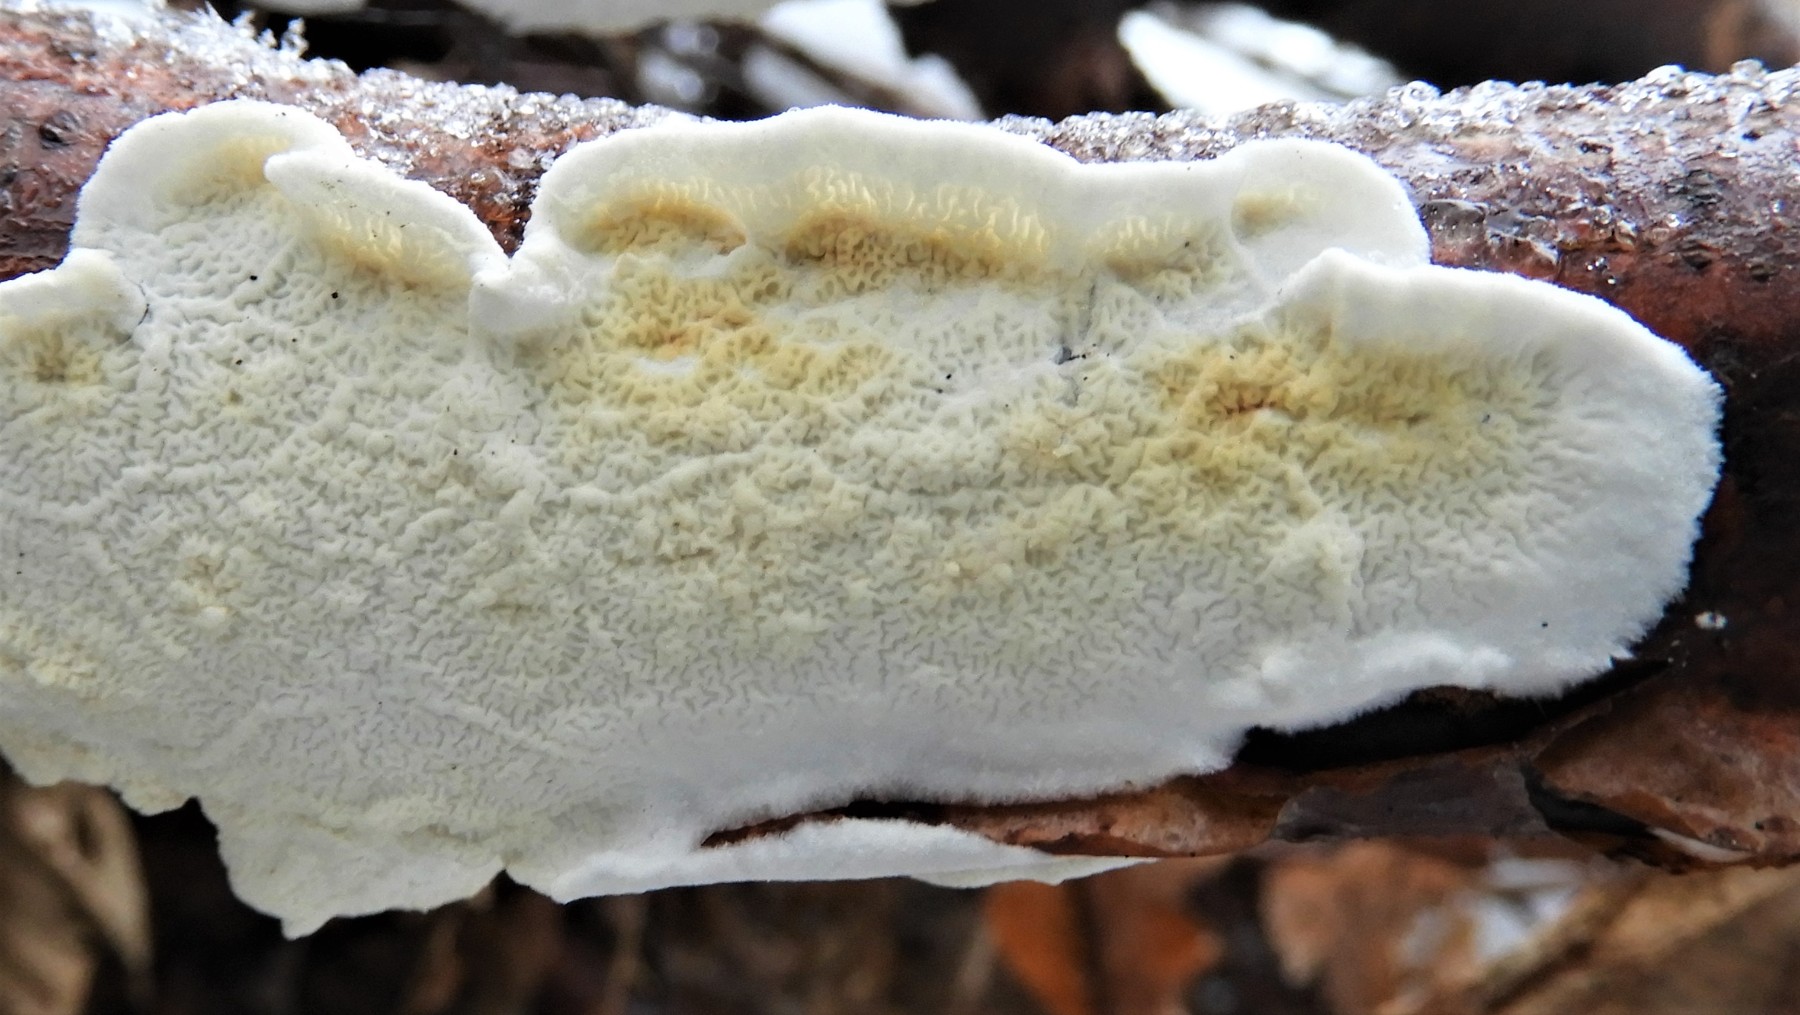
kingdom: Fungi
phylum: Basidiomycota
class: Agaricomycetes
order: Polyporales
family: Irpicaceae
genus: Byssomerulius
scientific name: Byssomerulius corium
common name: læder-åresvamp
